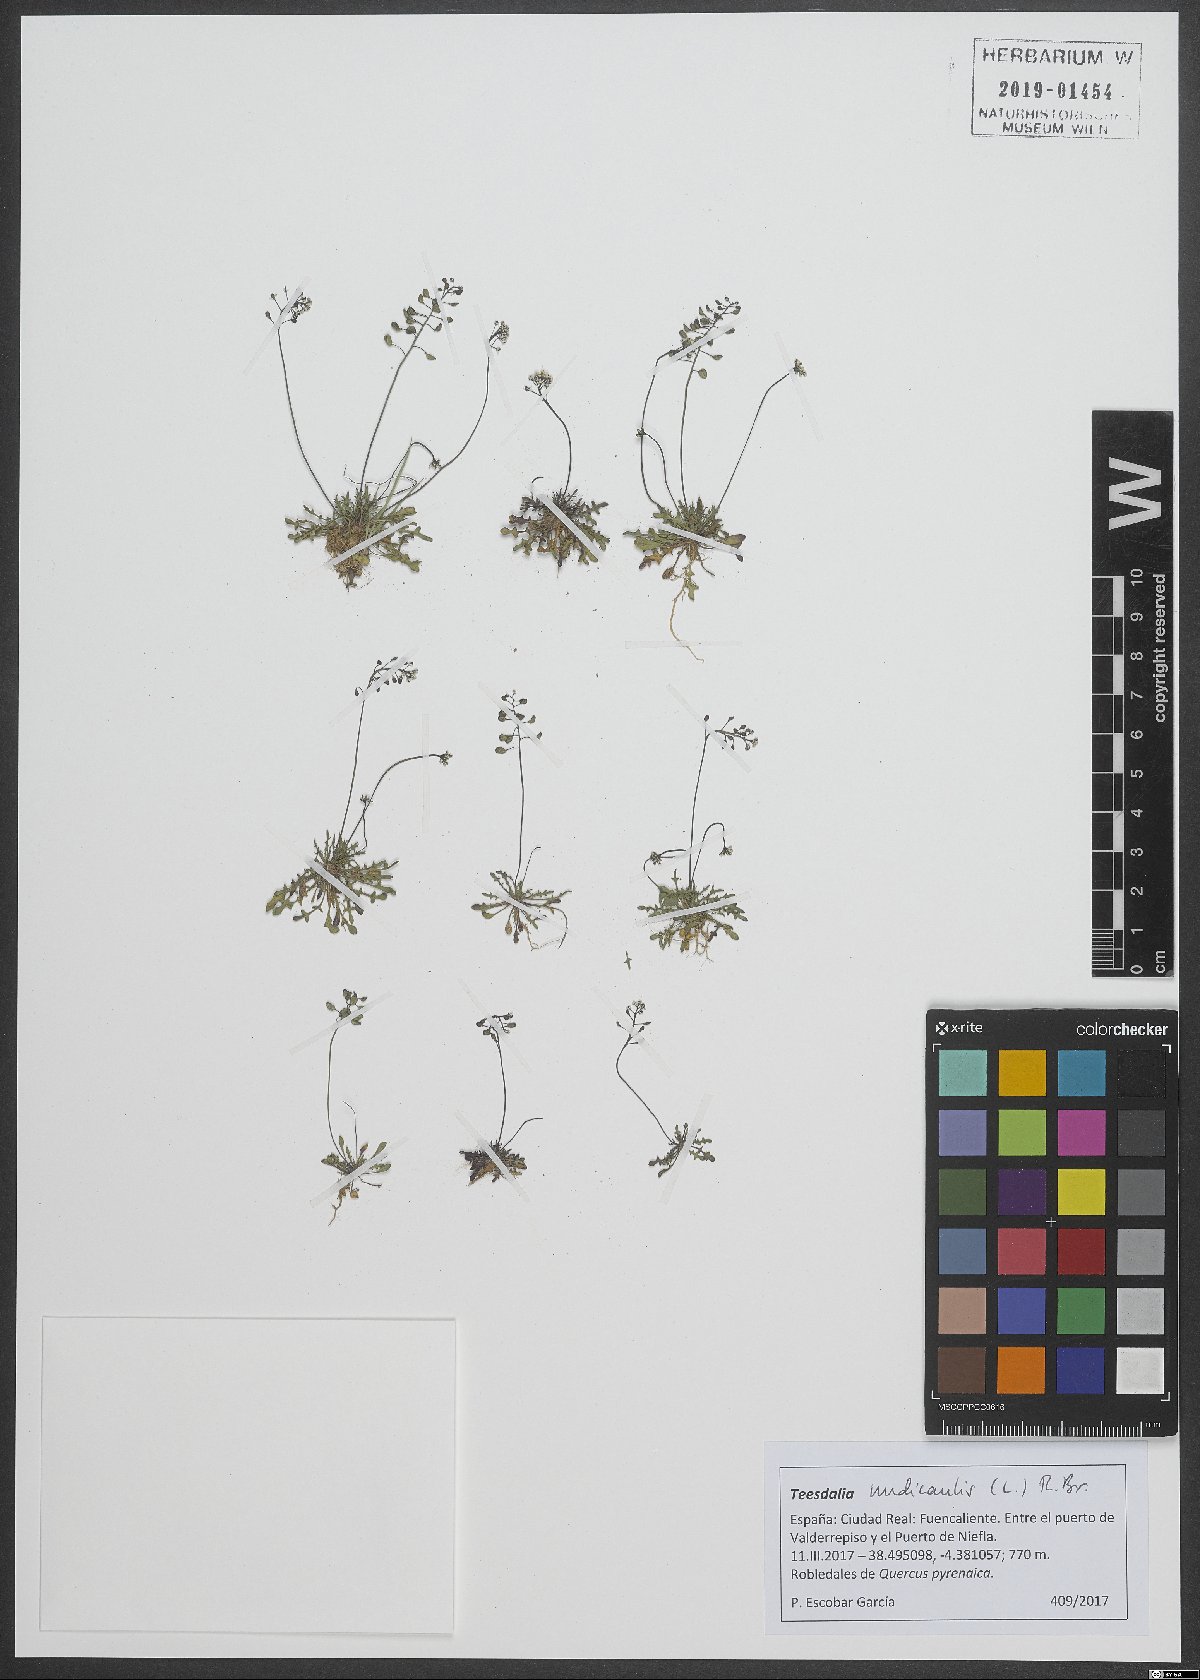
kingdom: Plantae
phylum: Tracheophyta
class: Magnoliopsida
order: Brassicales
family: Brassicaceae
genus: Teesdalia
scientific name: Teesdalia nudicaulis
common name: Shepherd's cress
